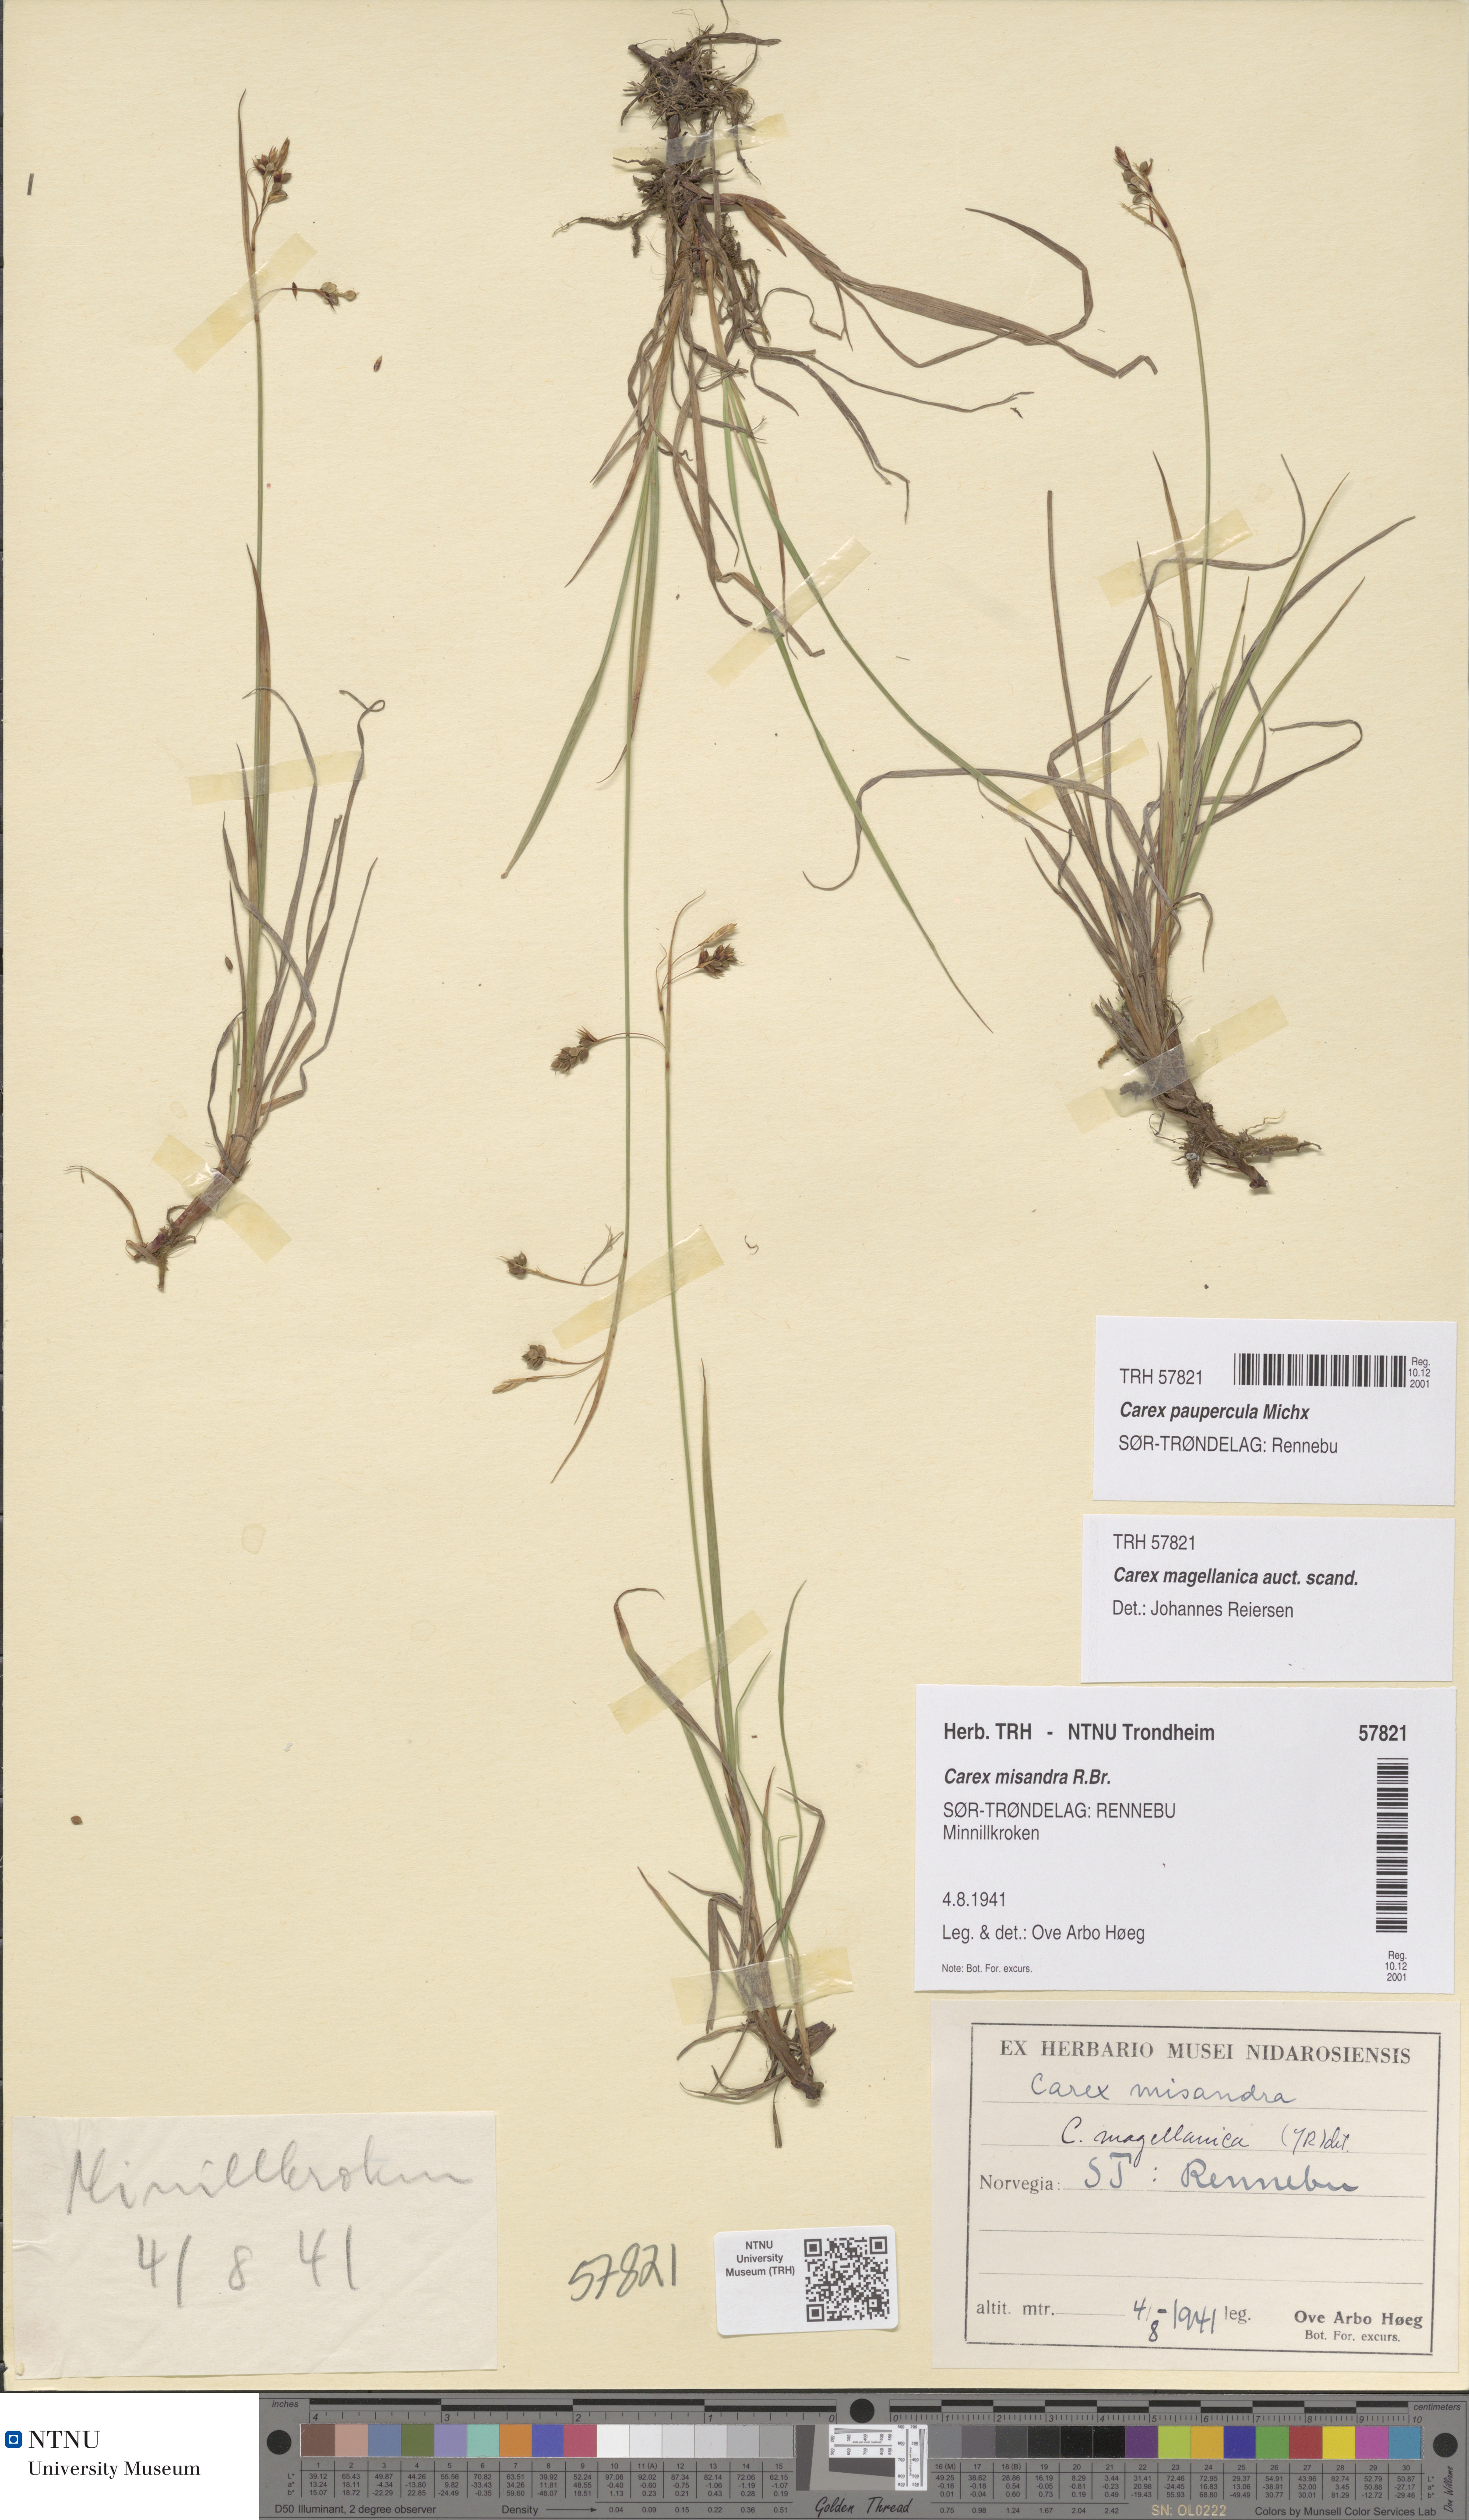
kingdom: Plantae
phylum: Tracheophyta
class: Liliopsida
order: Poales
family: Cyperaceae
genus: Carex
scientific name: Carex magellanica
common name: Bog sedge
